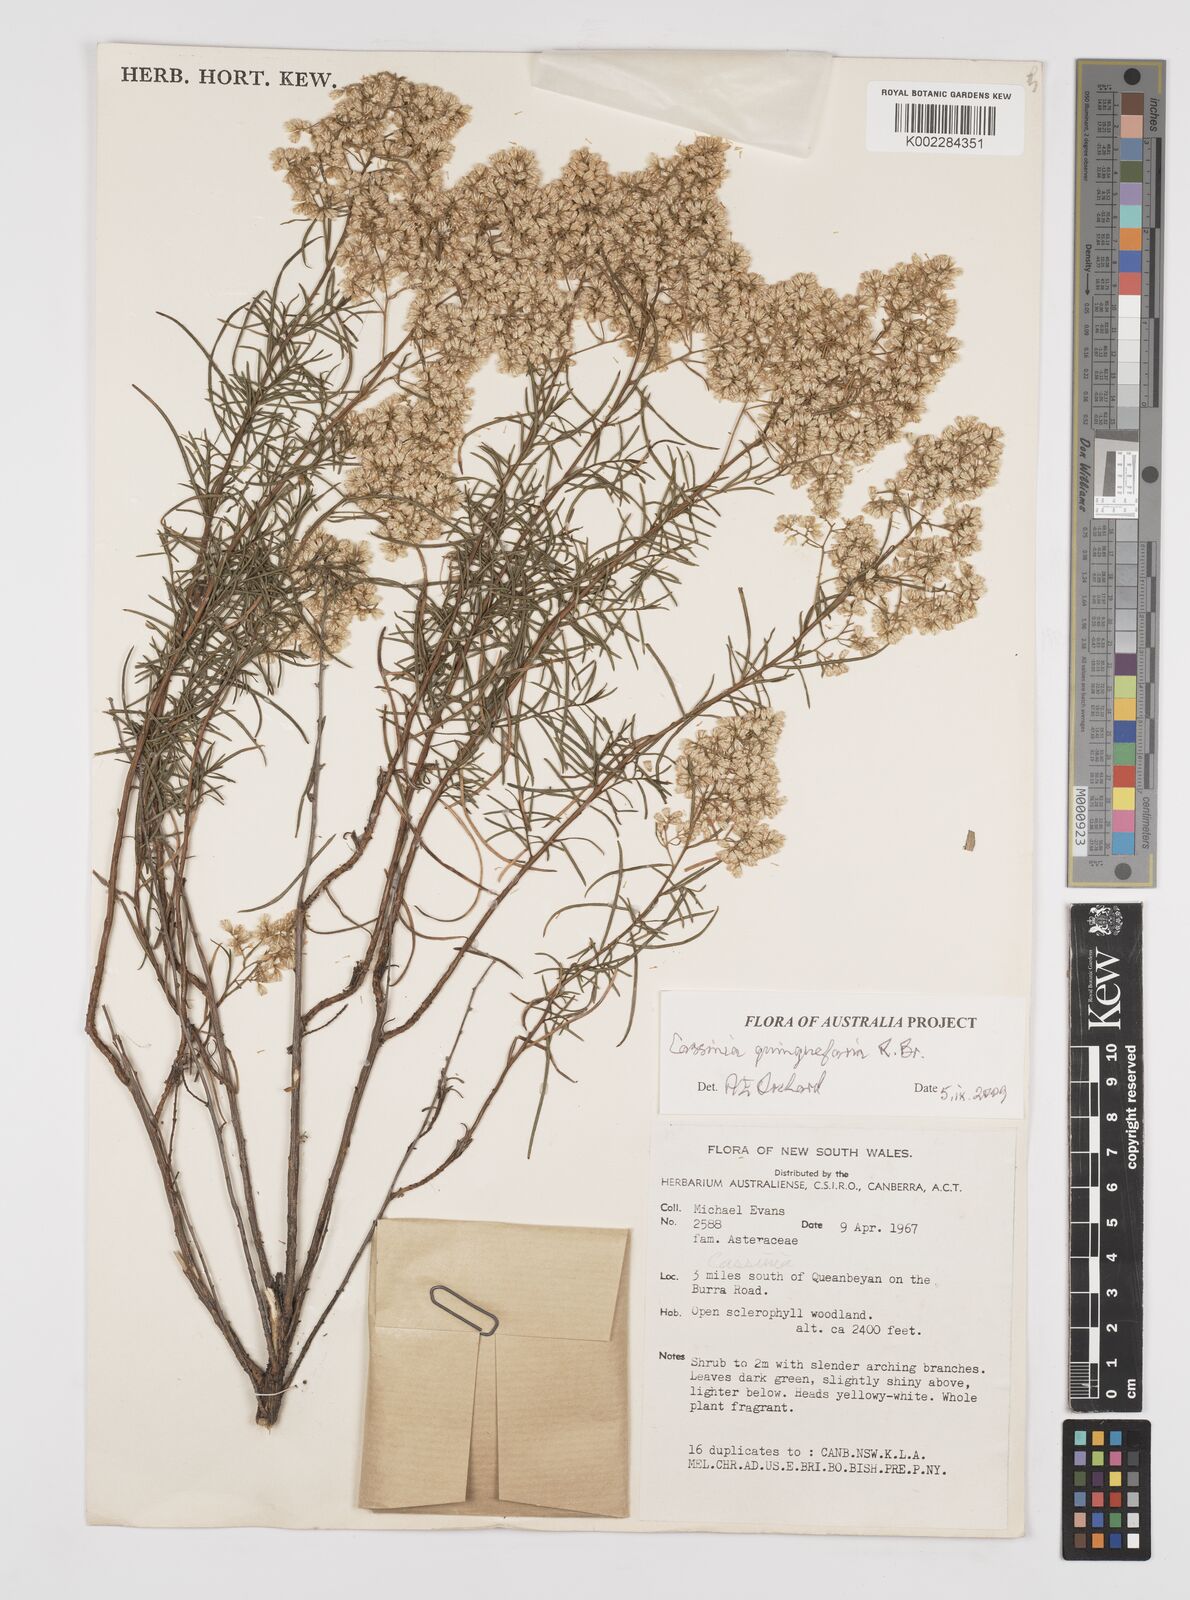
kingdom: Plantae
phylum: Tracheophyta
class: Magnoliopsida
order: Asterales
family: Asteraceae
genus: Cassinia
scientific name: Cassinia quinquefaria
